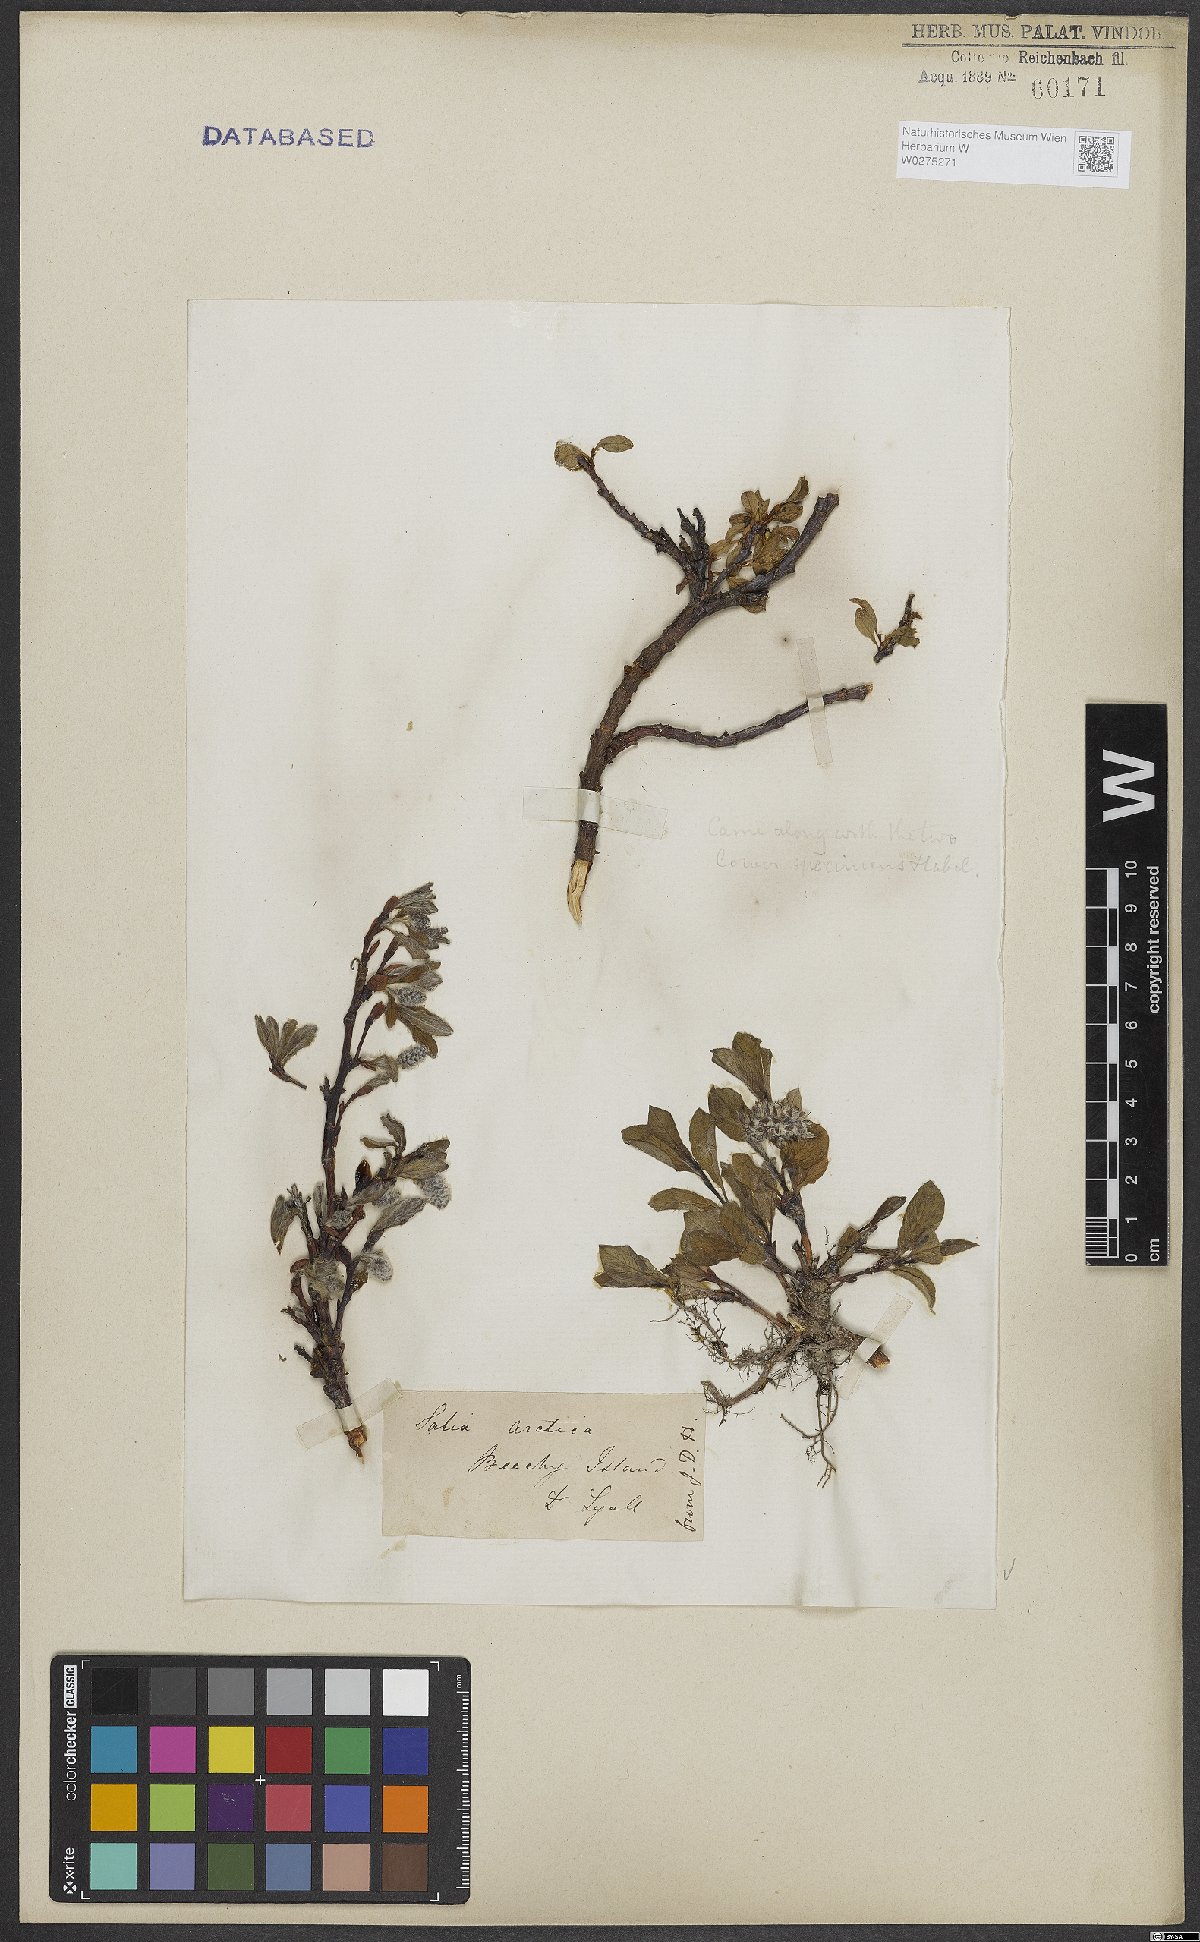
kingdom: Plantae
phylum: Tracheophyta
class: Magnoliopsida
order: Malpighiales
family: Salicaceae
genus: Salix
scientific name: Salix arctica
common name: Arctic willow
